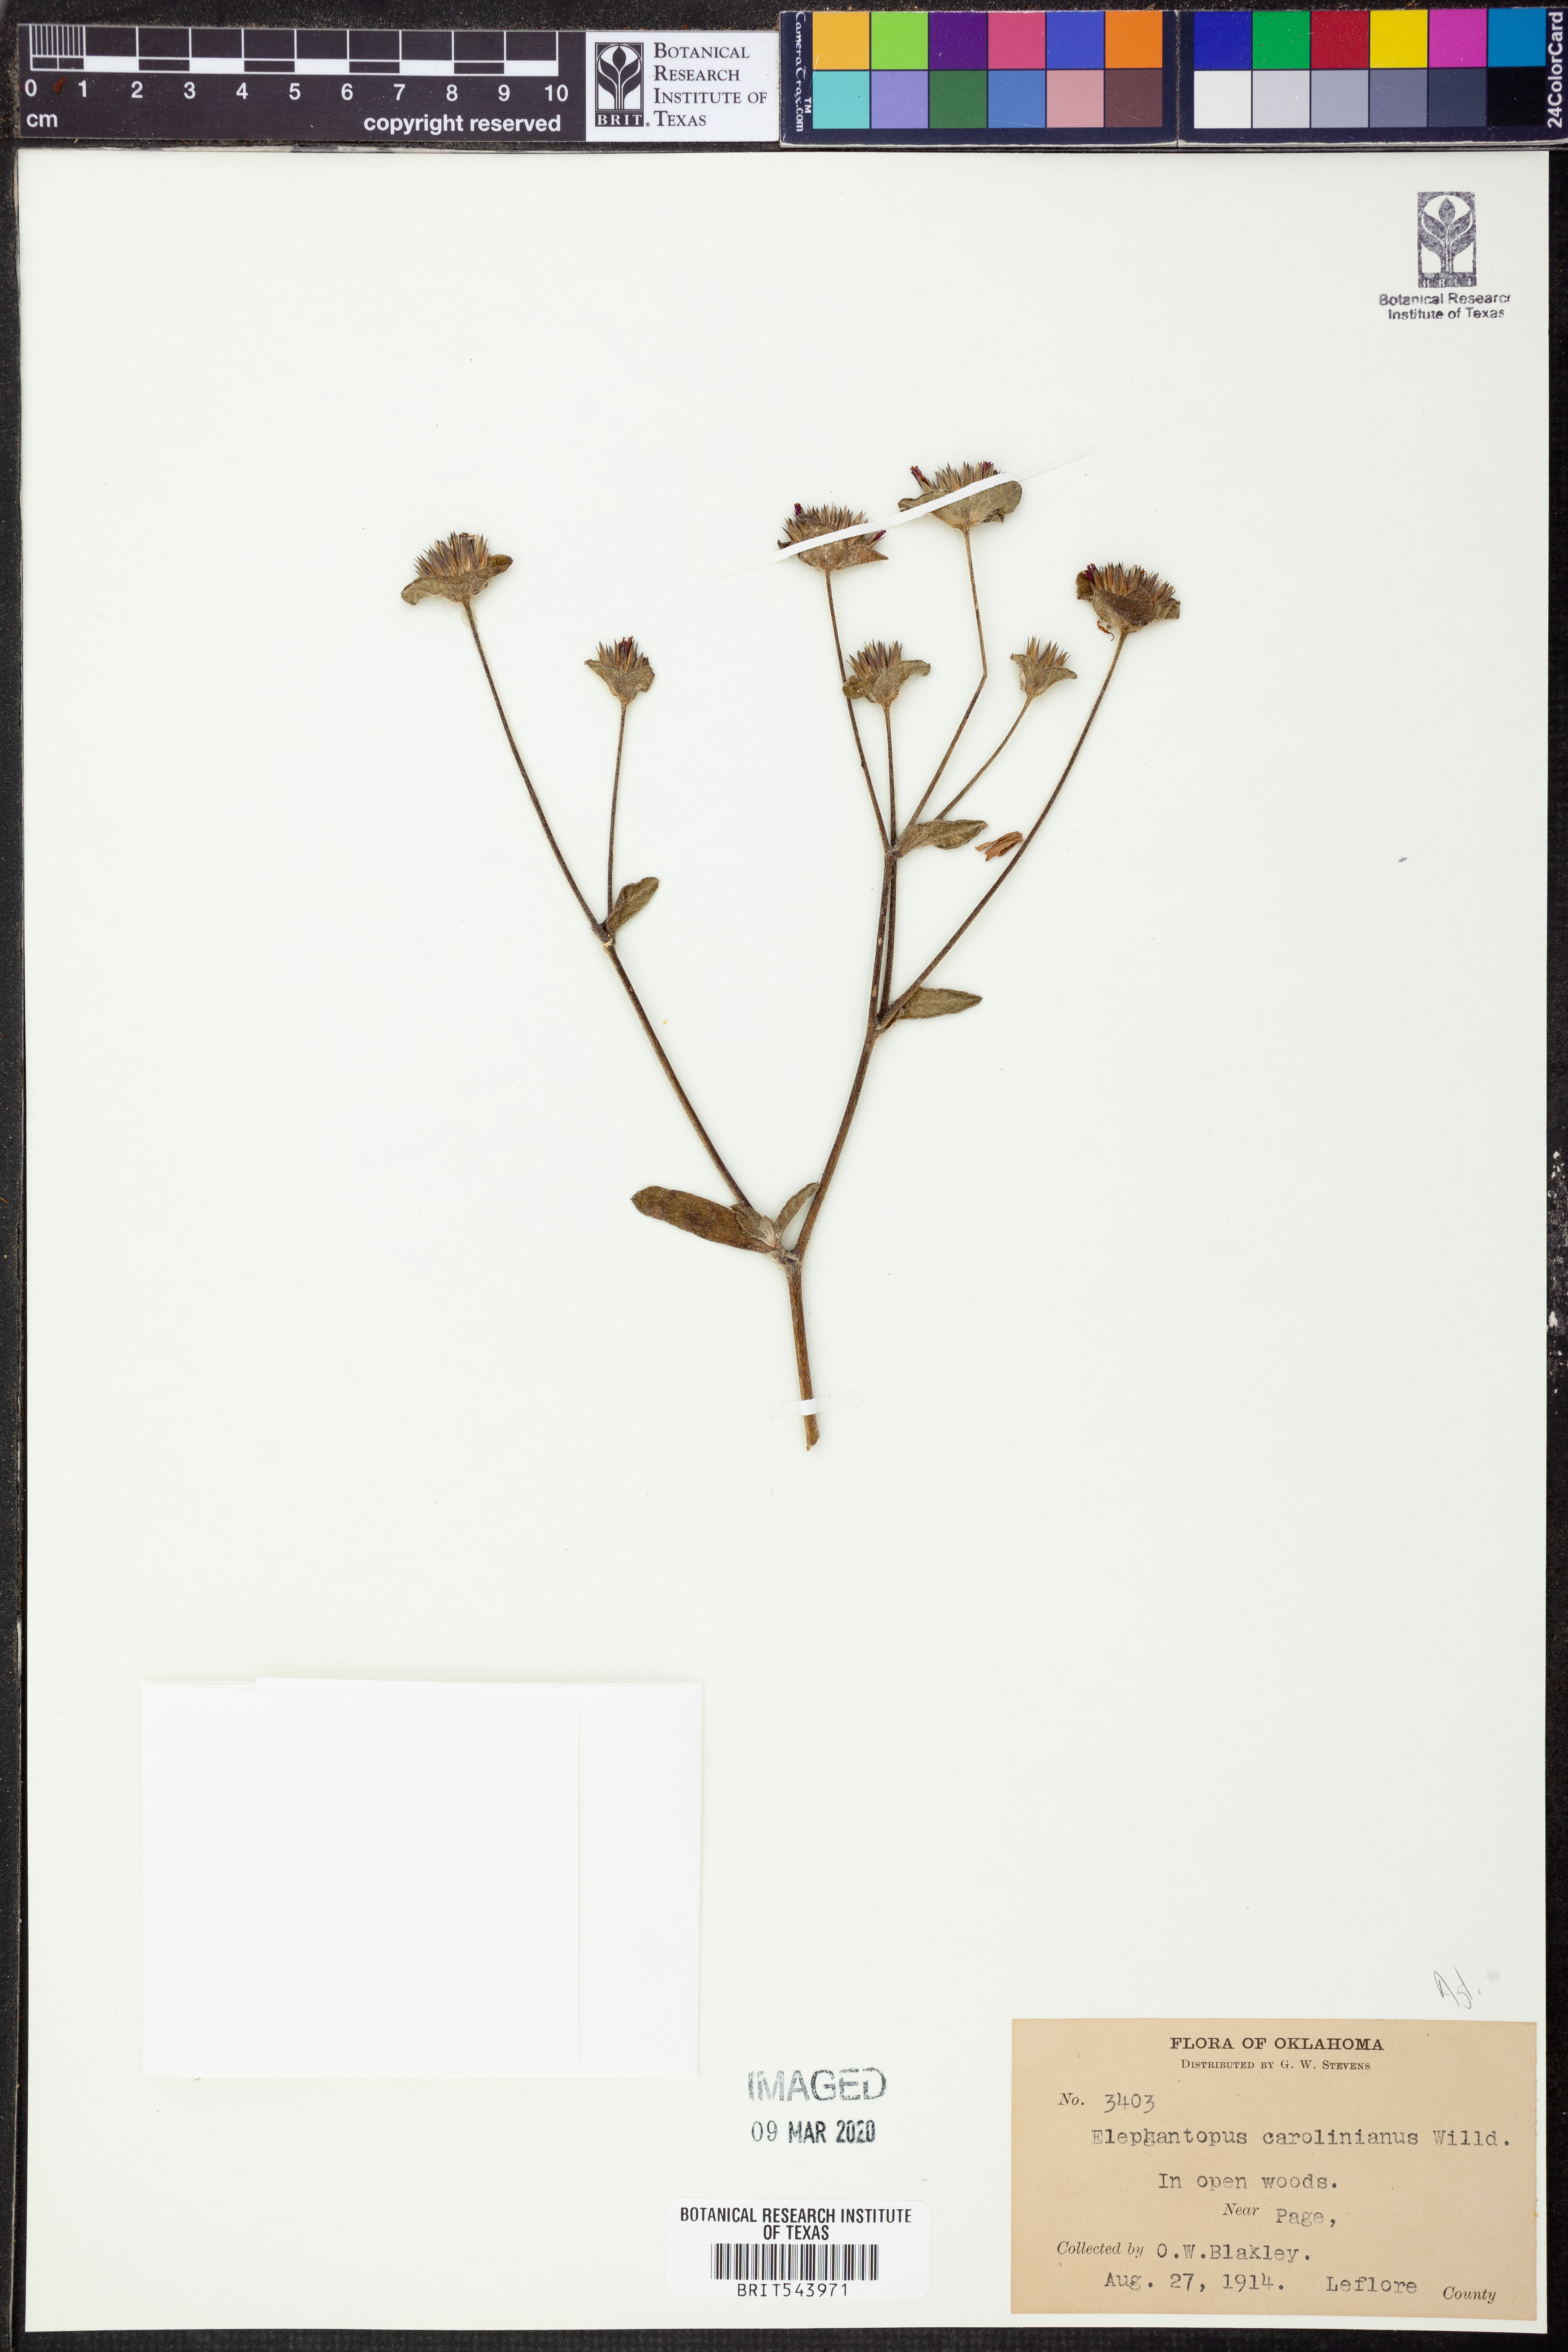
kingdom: Plantae
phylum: Tracheophyta
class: Magnoliopsida
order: Asterales
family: Asteraceae
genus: Elephantopus
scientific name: Elephantopus carolinianus
